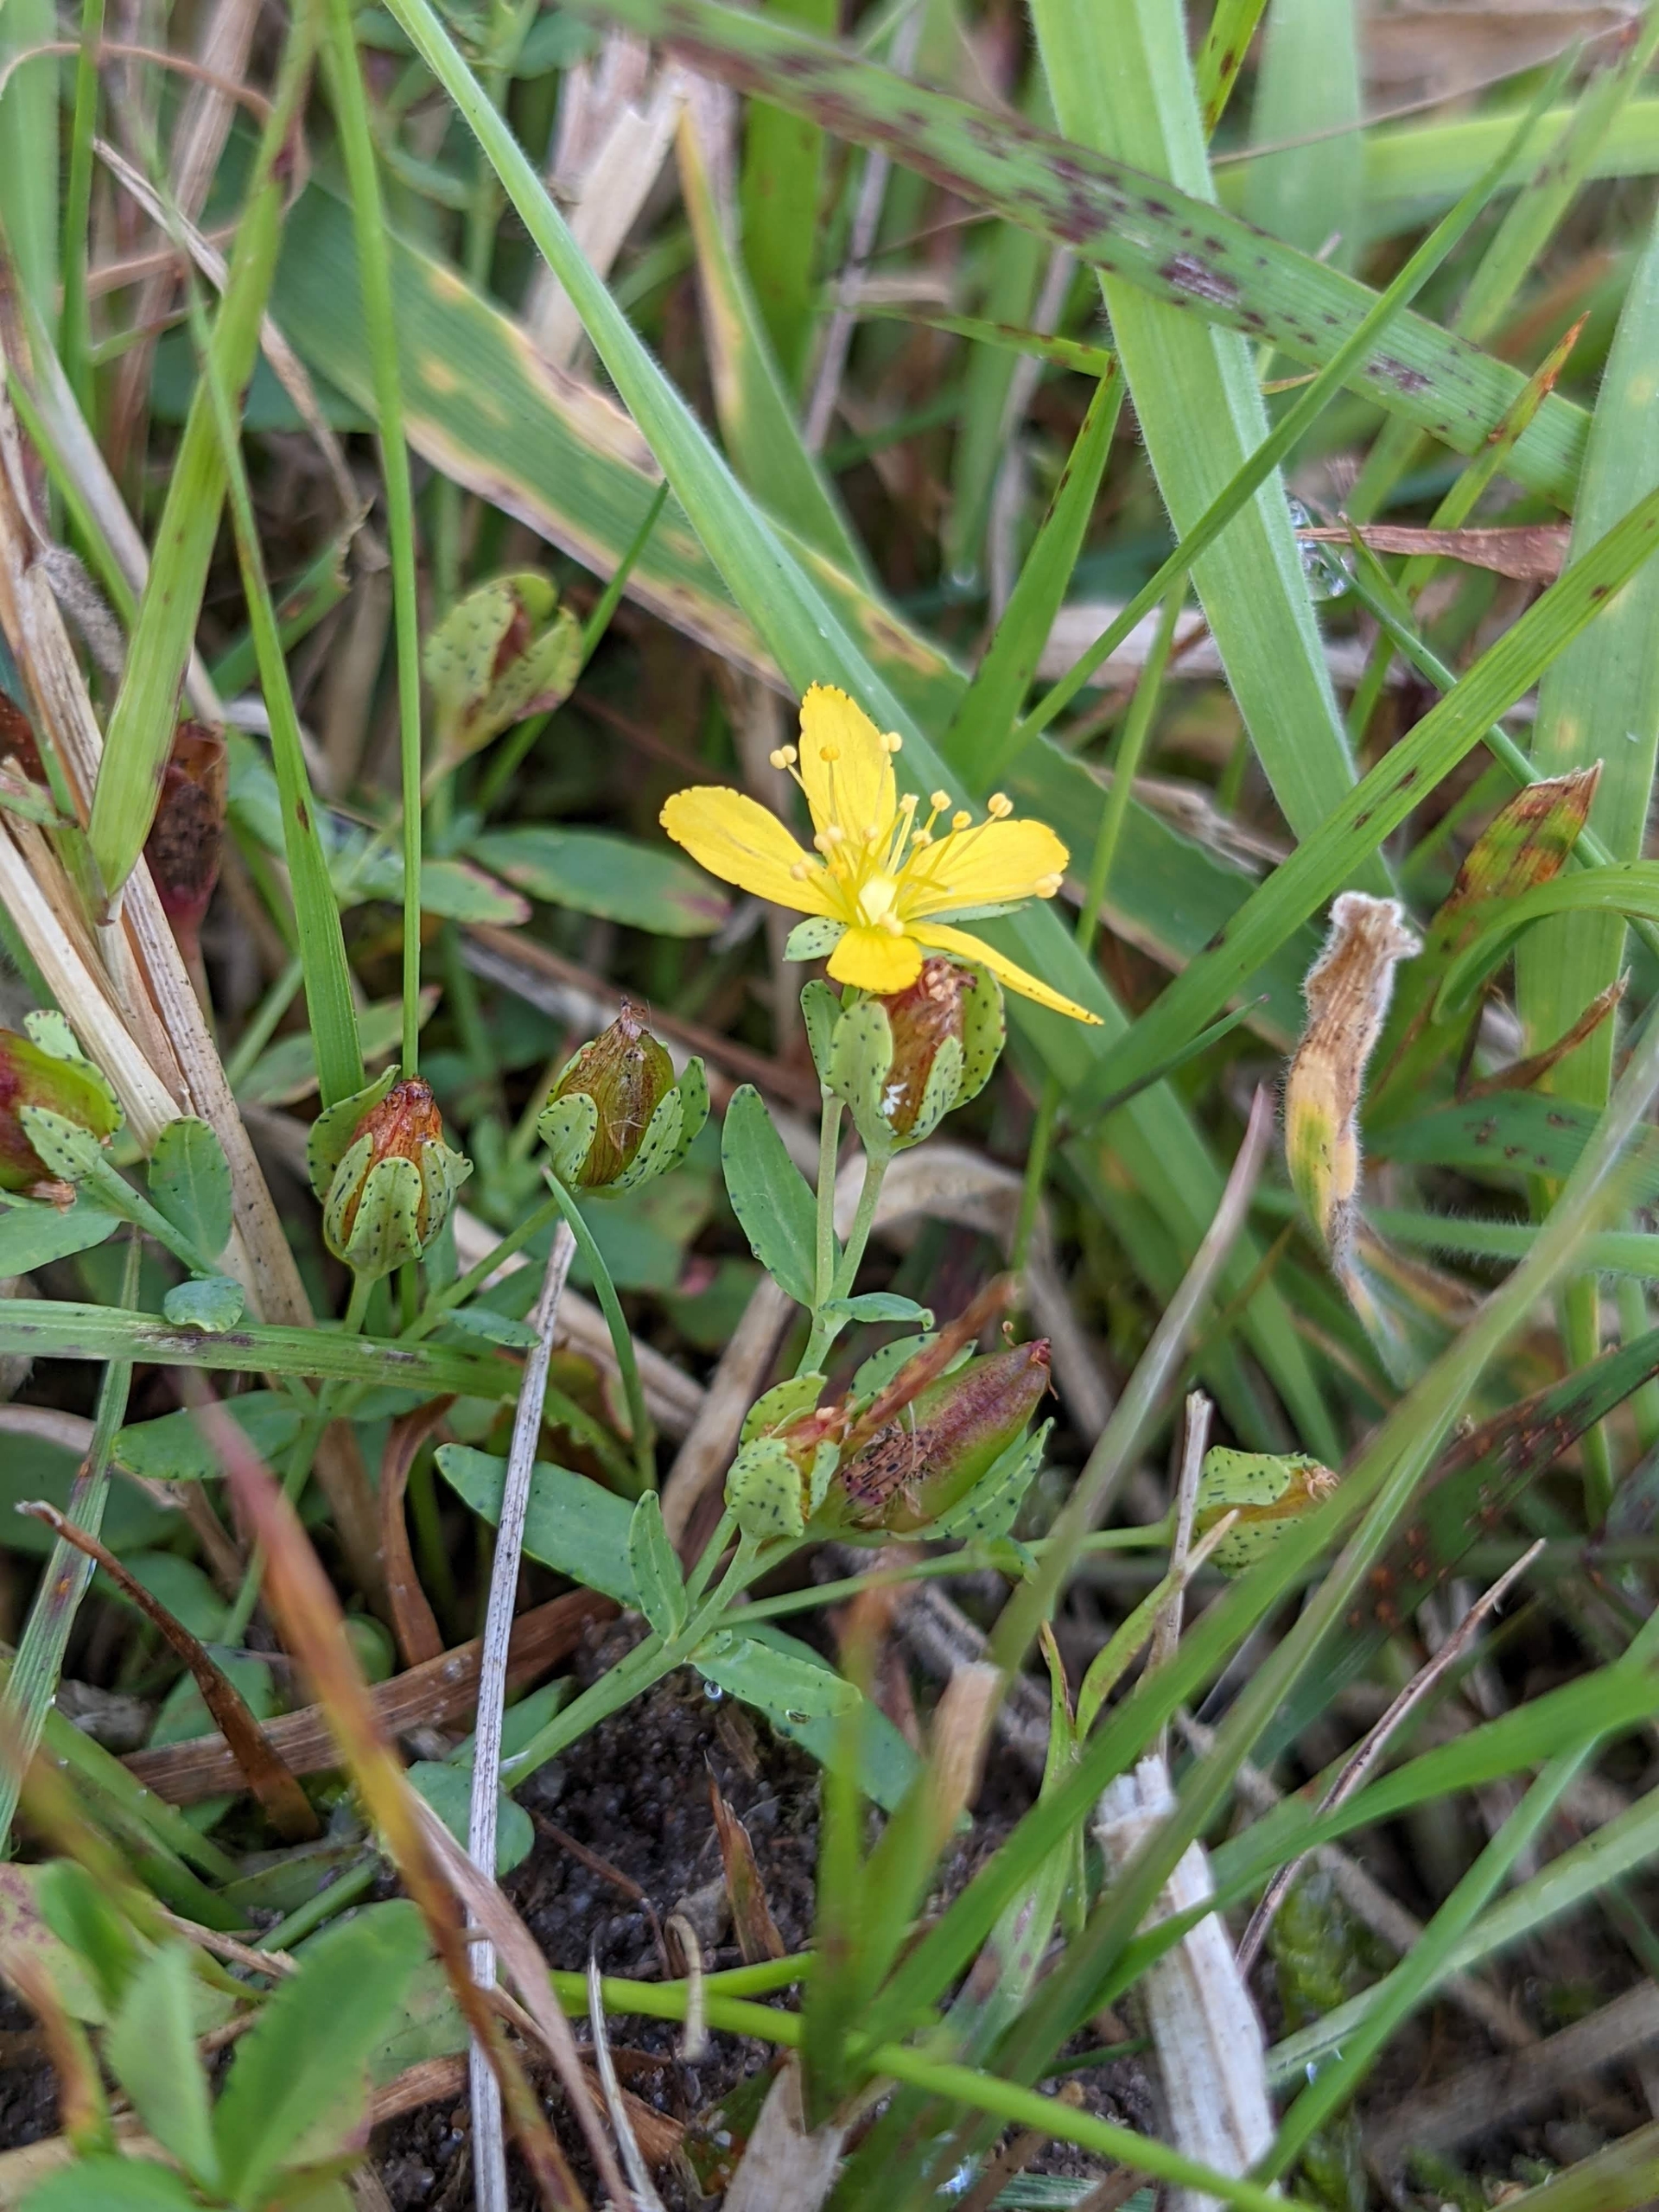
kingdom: Plantae
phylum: Tracheophyta
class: Magnoliopsida
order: Malpighiales
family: Hypericaceae
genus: Hypericum
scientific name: Hypericum humifusum
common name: Dværg-perikon
